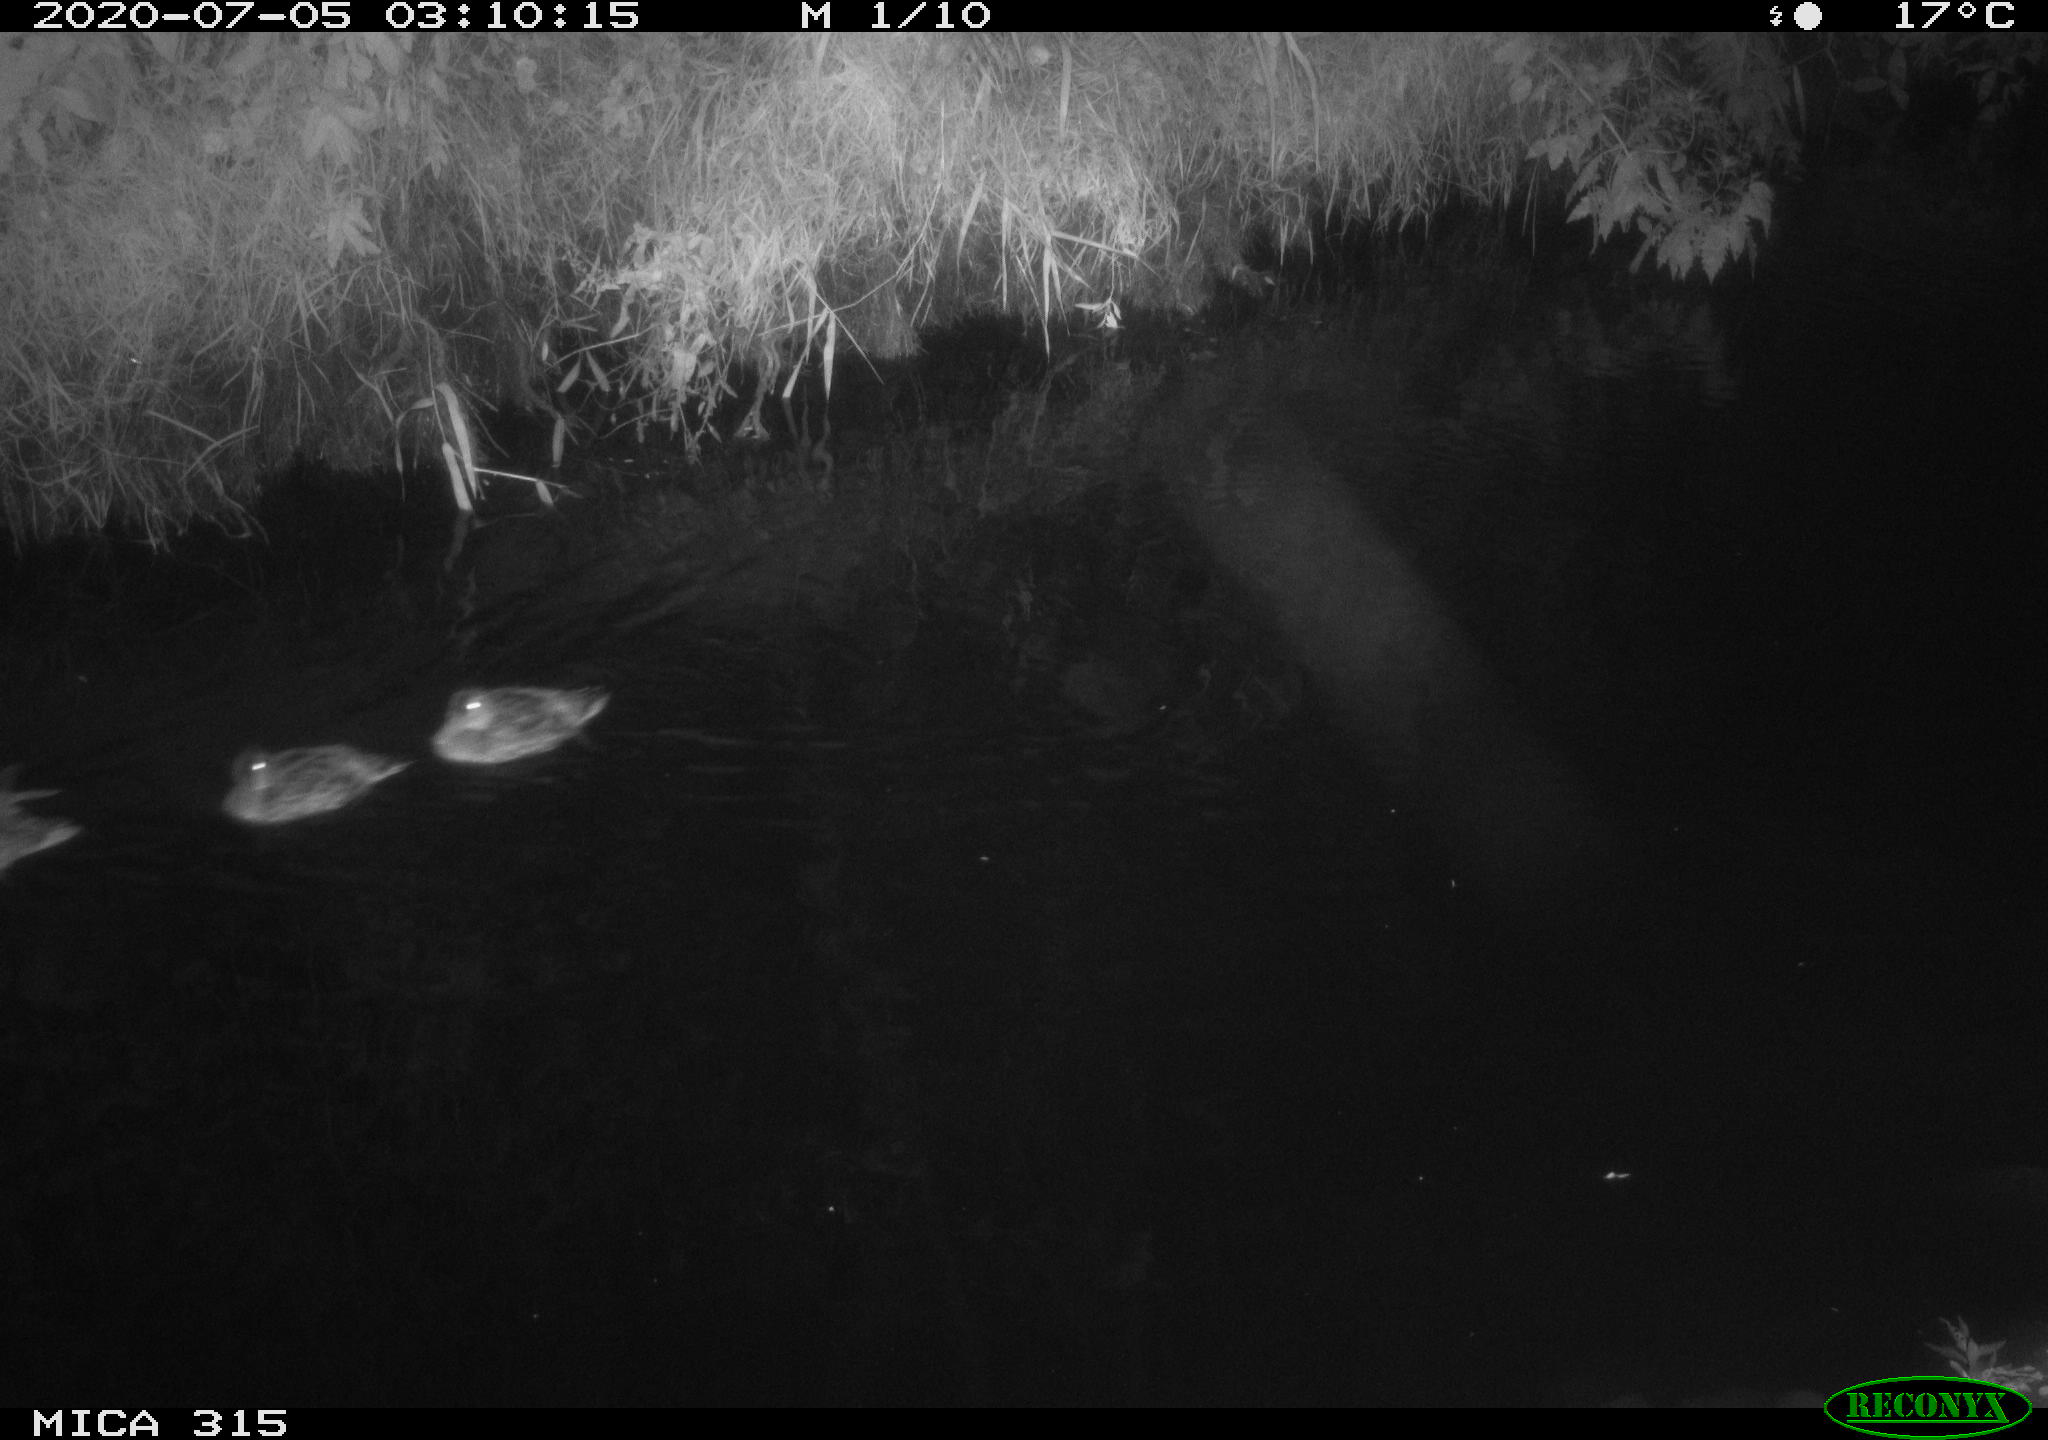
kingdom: Animalia
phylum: Chordata
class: Aves
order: Anseriformes
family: Anatidae
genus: Anas
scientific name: Anas platyrhynchos
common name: Mallard
